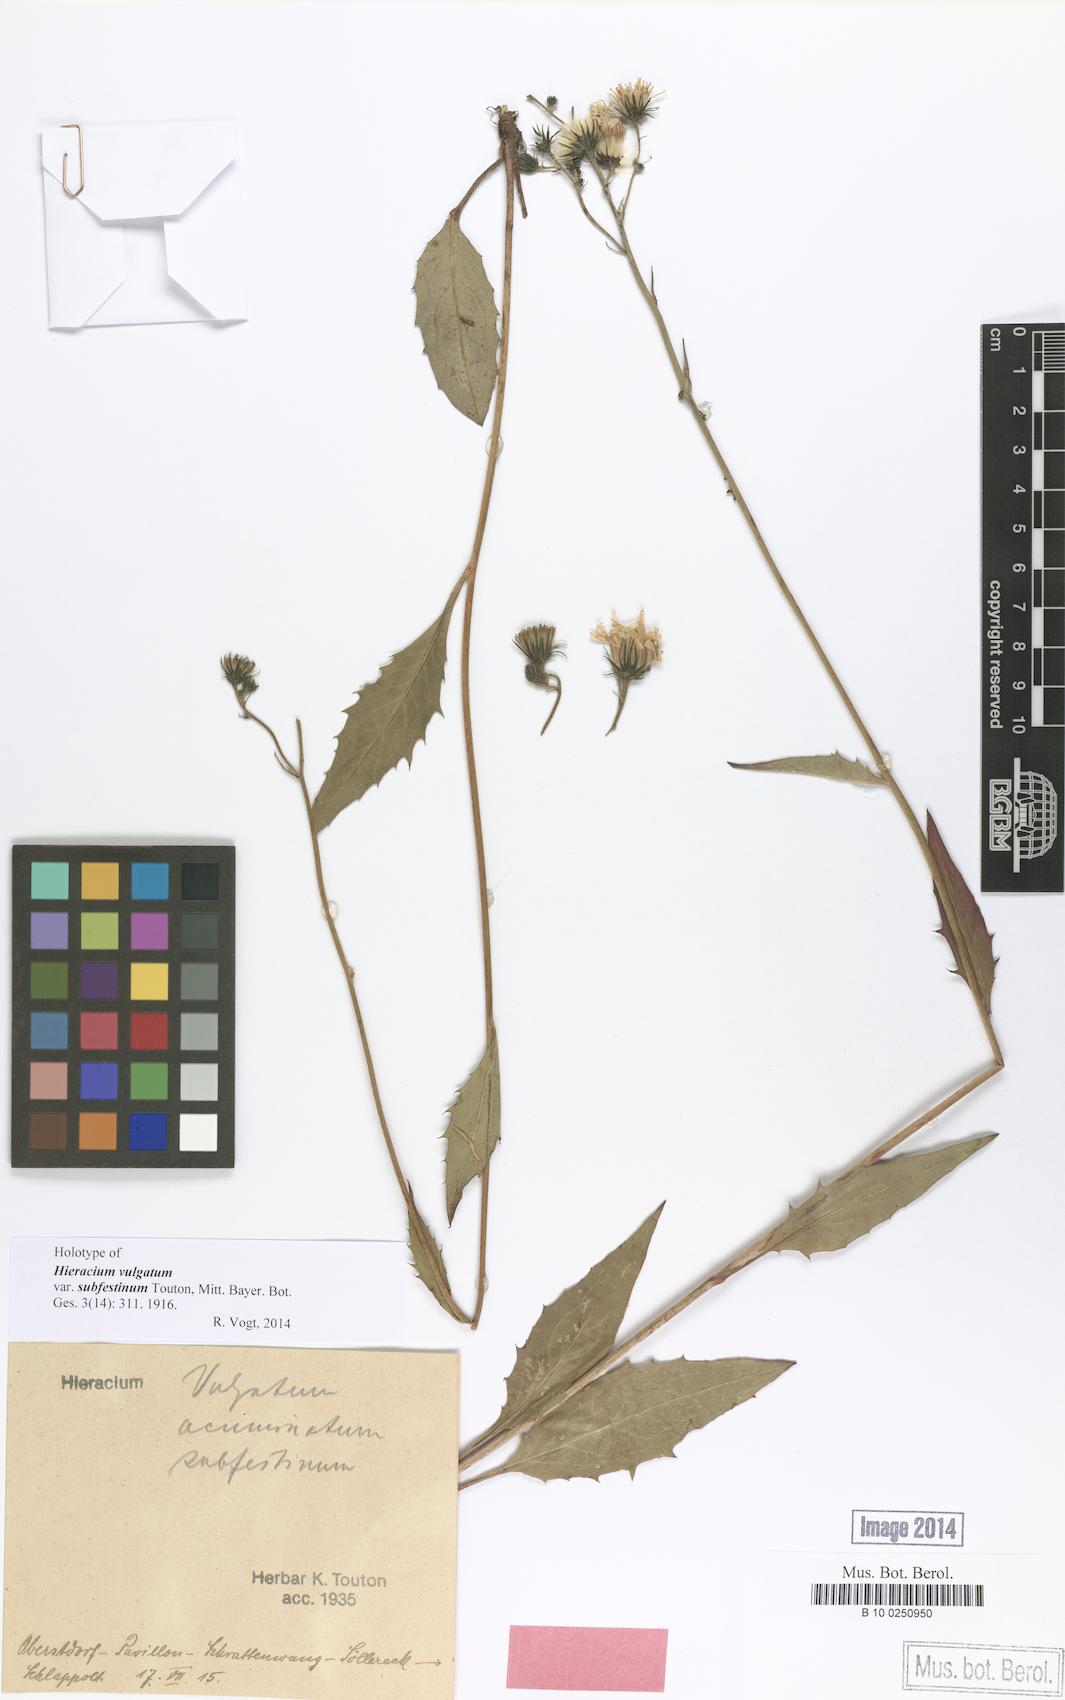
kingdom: Plantae
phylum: Tracheophyta
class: Magnoliopsida
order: Asterales
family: Asteraceae
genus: Hieracium
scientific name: Hieracium vulgatum
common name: Common hawkweed
